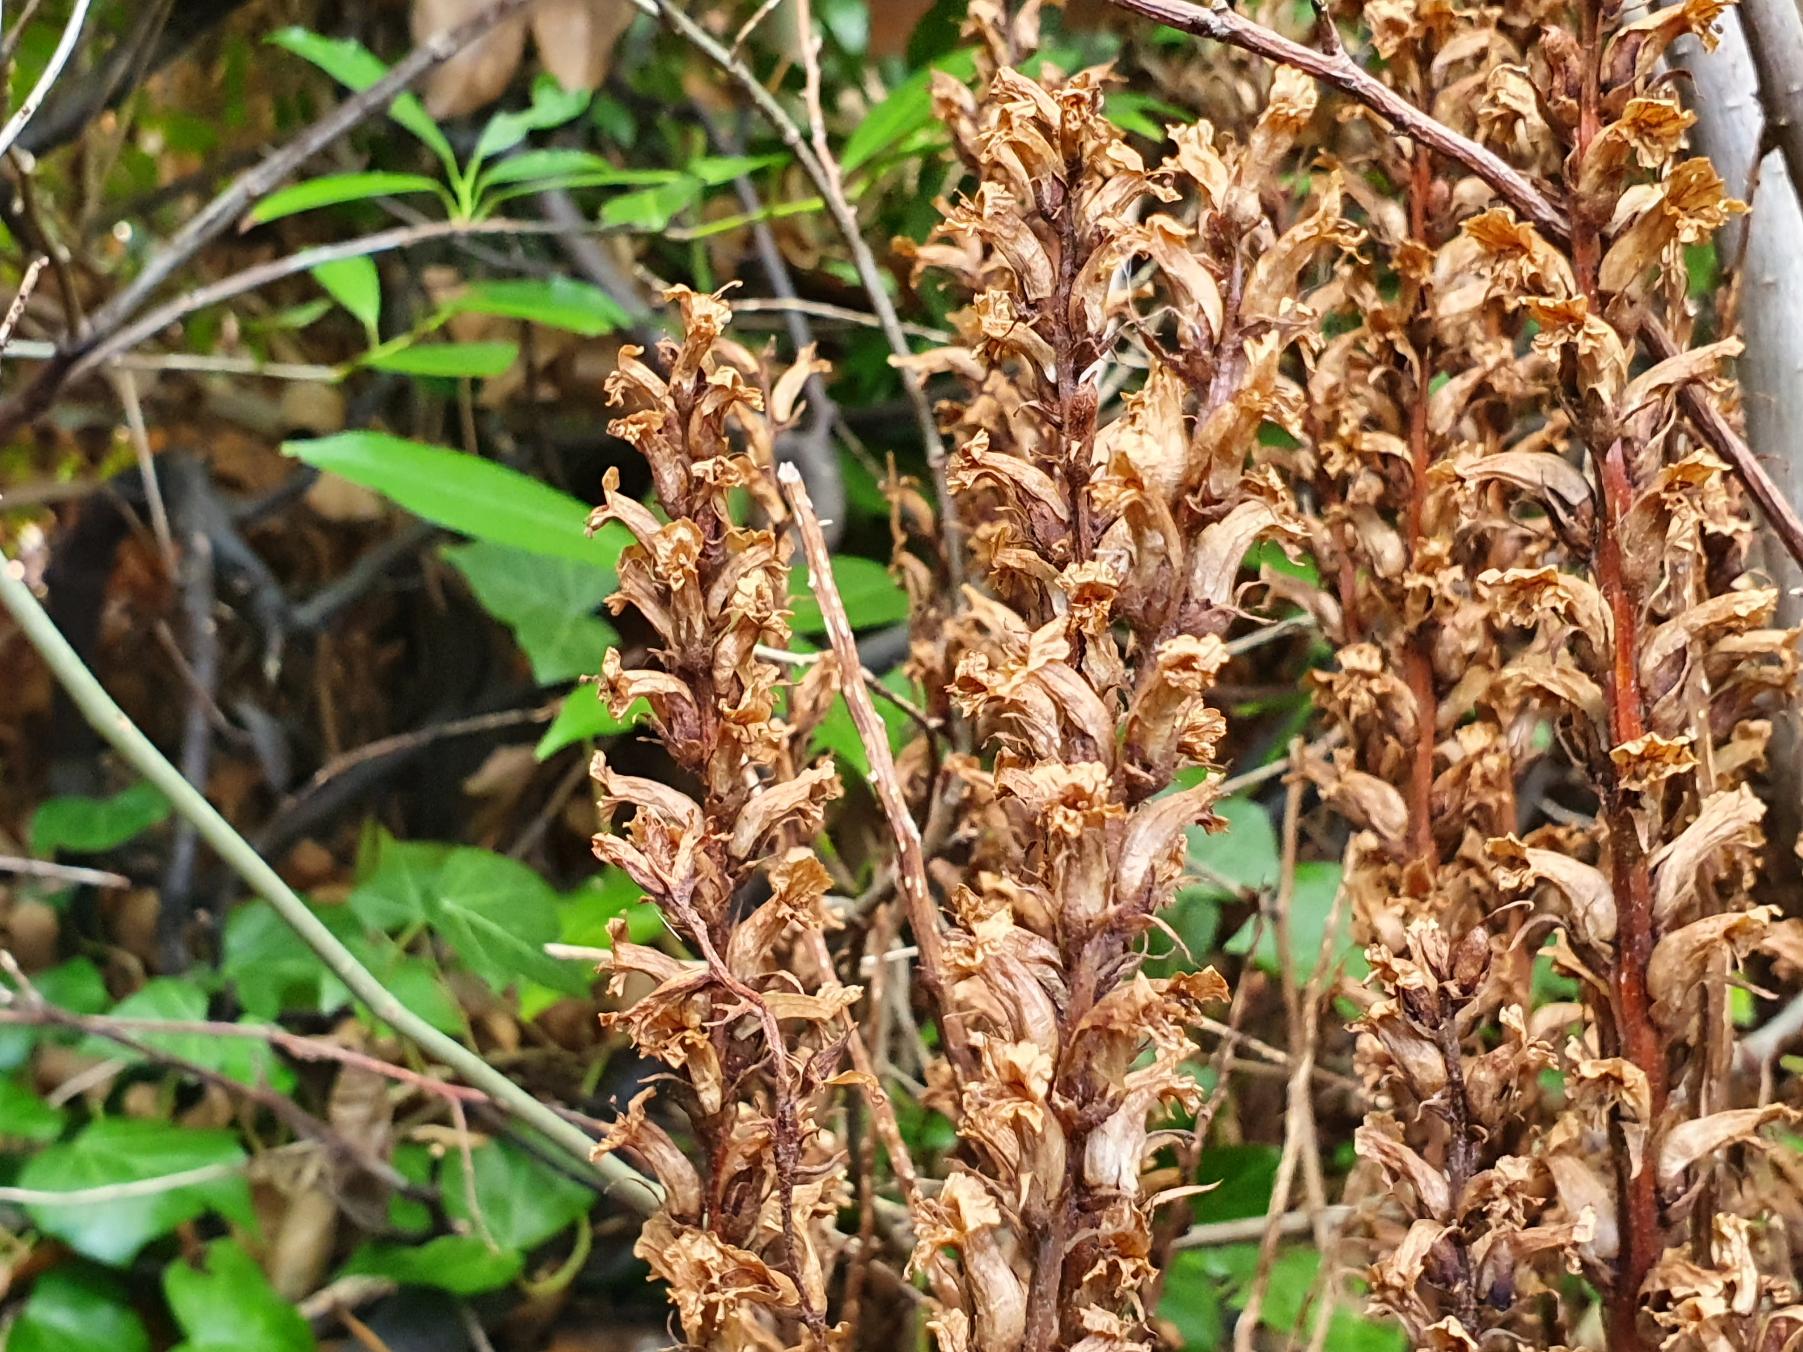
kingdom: Plantae
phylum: Tracheophyta
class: Magnoliopsida
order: Lamiales
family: Orobanchaceae
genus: Orobanche
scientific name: Orobanche hederae
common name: Vedbend-gyvelkvæler
